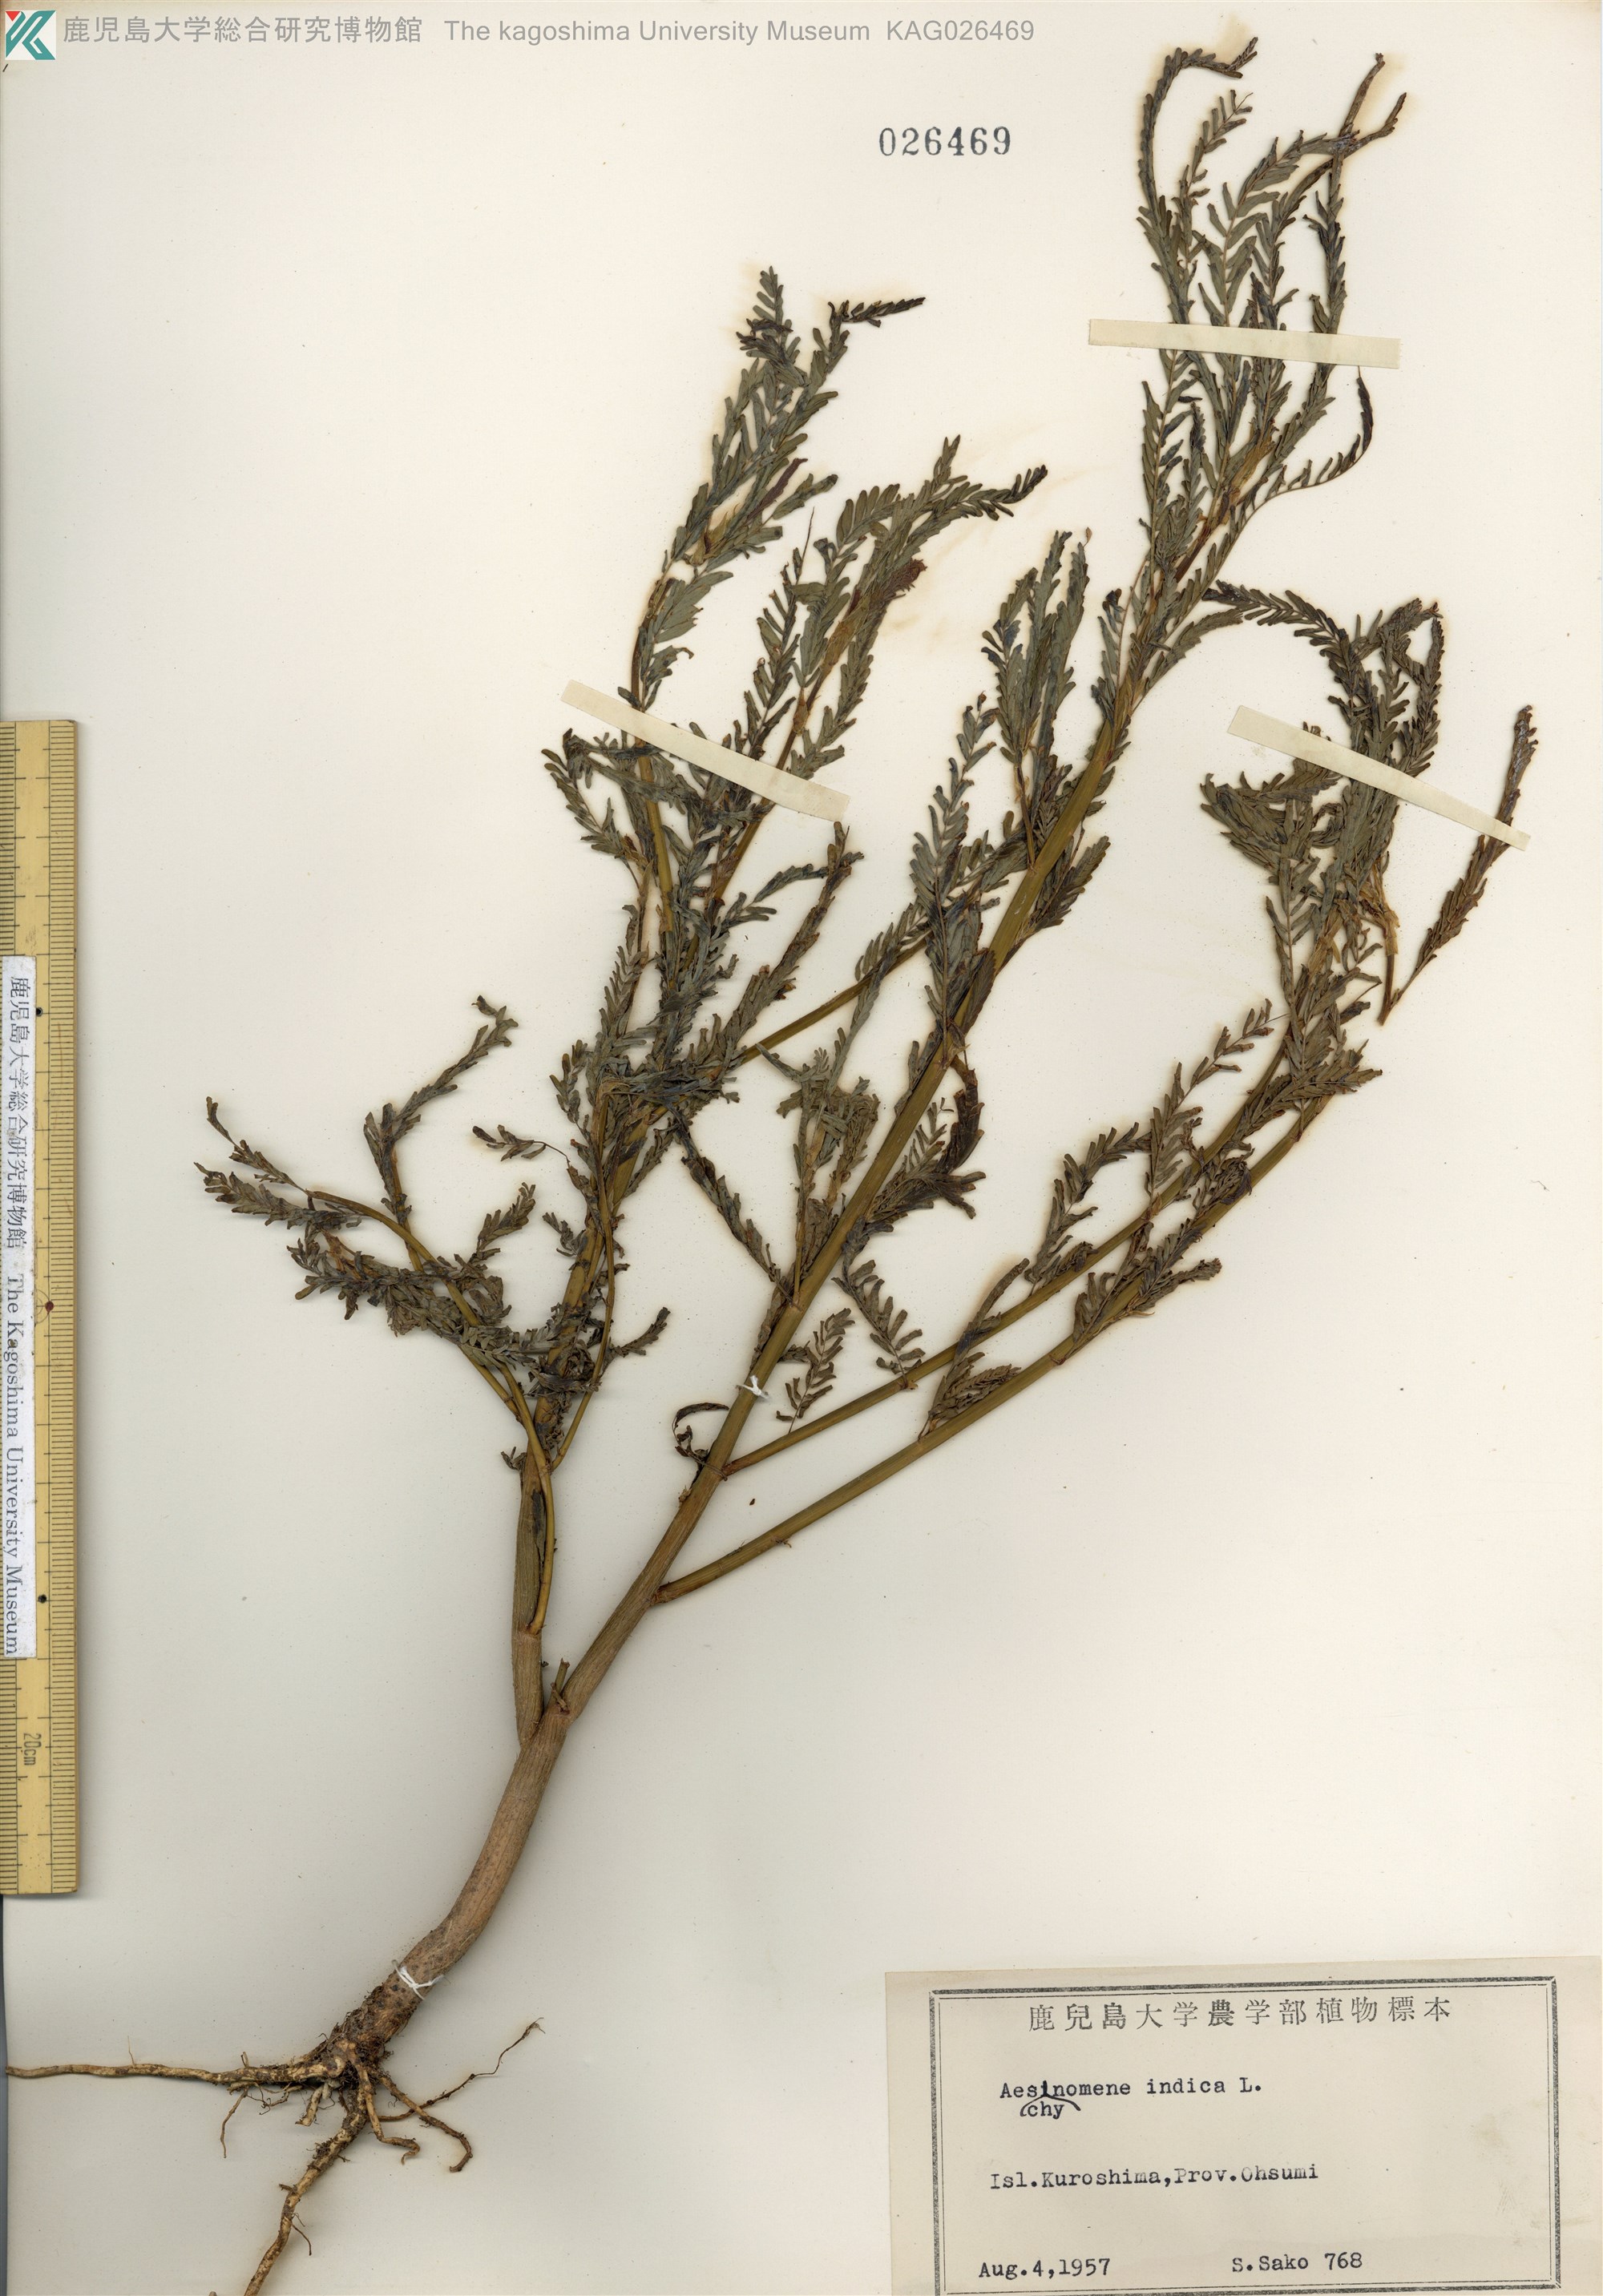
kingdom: Plantae
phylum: Tracheophyta
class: Magnoliopsida
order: Fabales
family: Fabaceae
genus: Aeschynomene
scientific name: Aeschynomene indica
